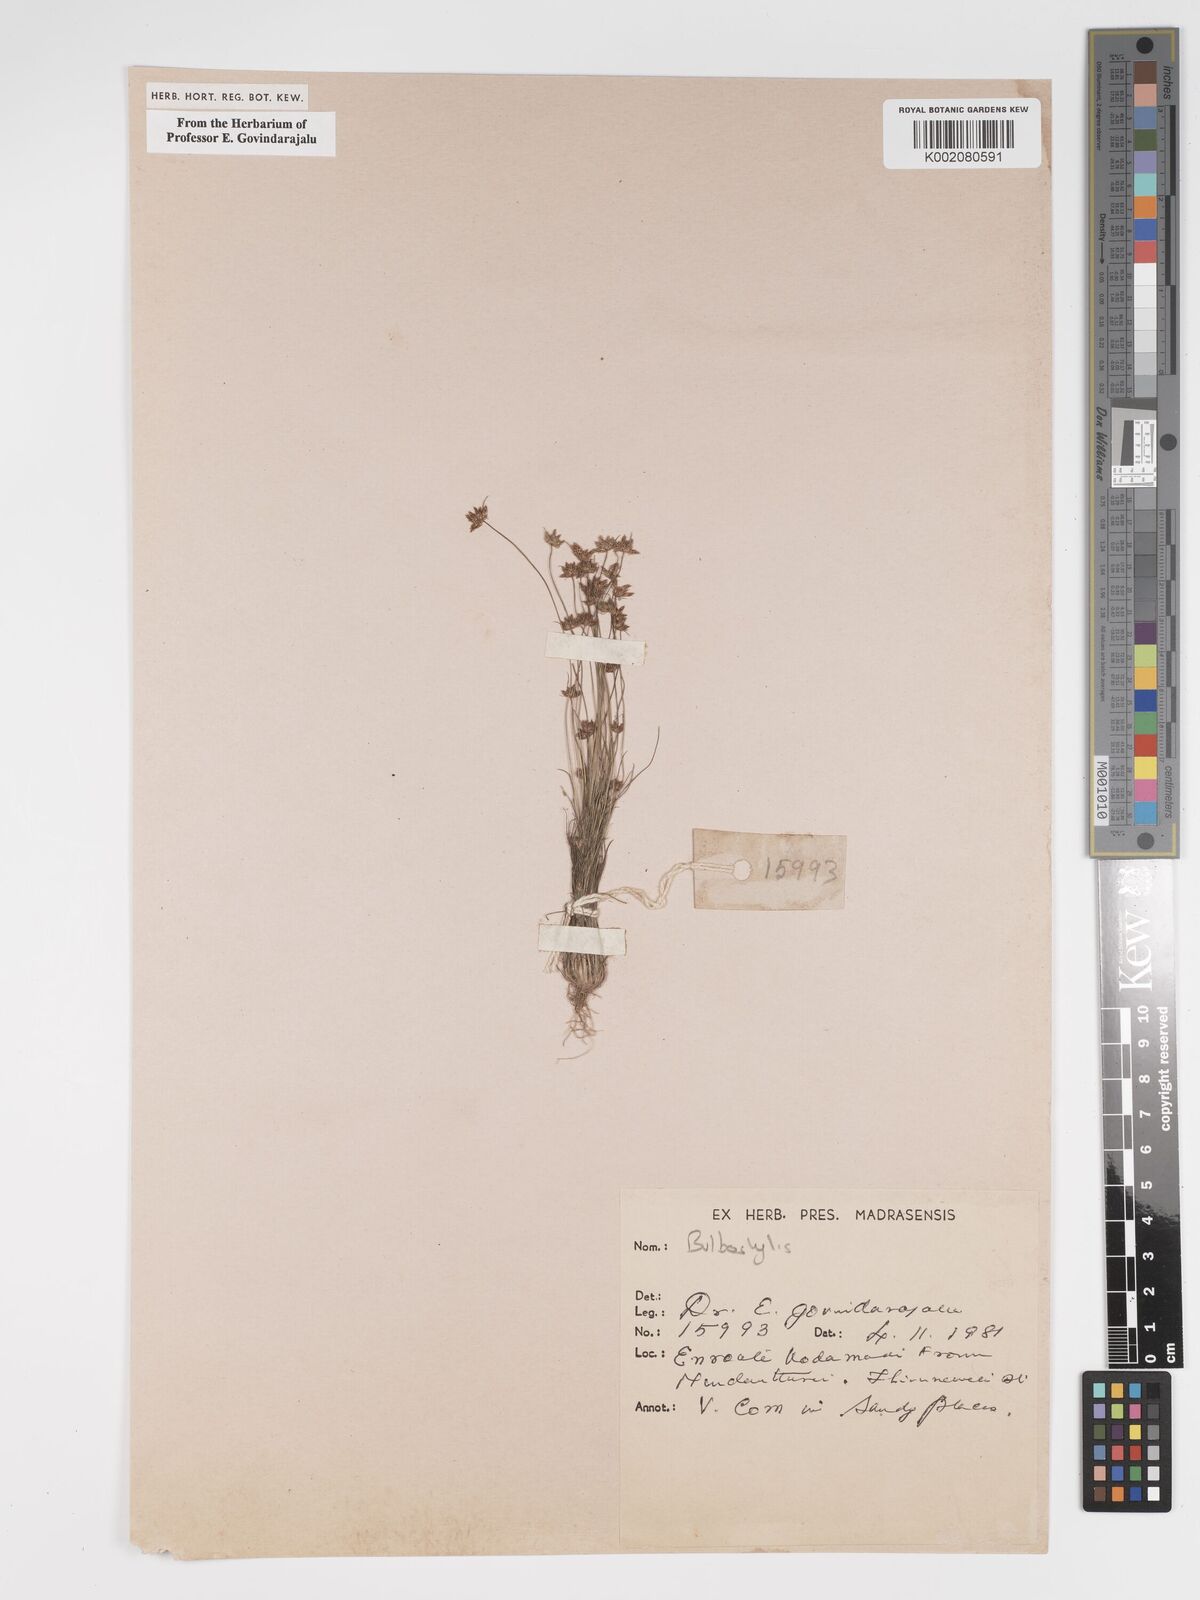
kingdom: Plantae
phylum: Tracheophyta
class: Liliopsida
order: Poales
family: Cyperaceae
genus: Bulbostylis
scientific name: Bulbostylis
